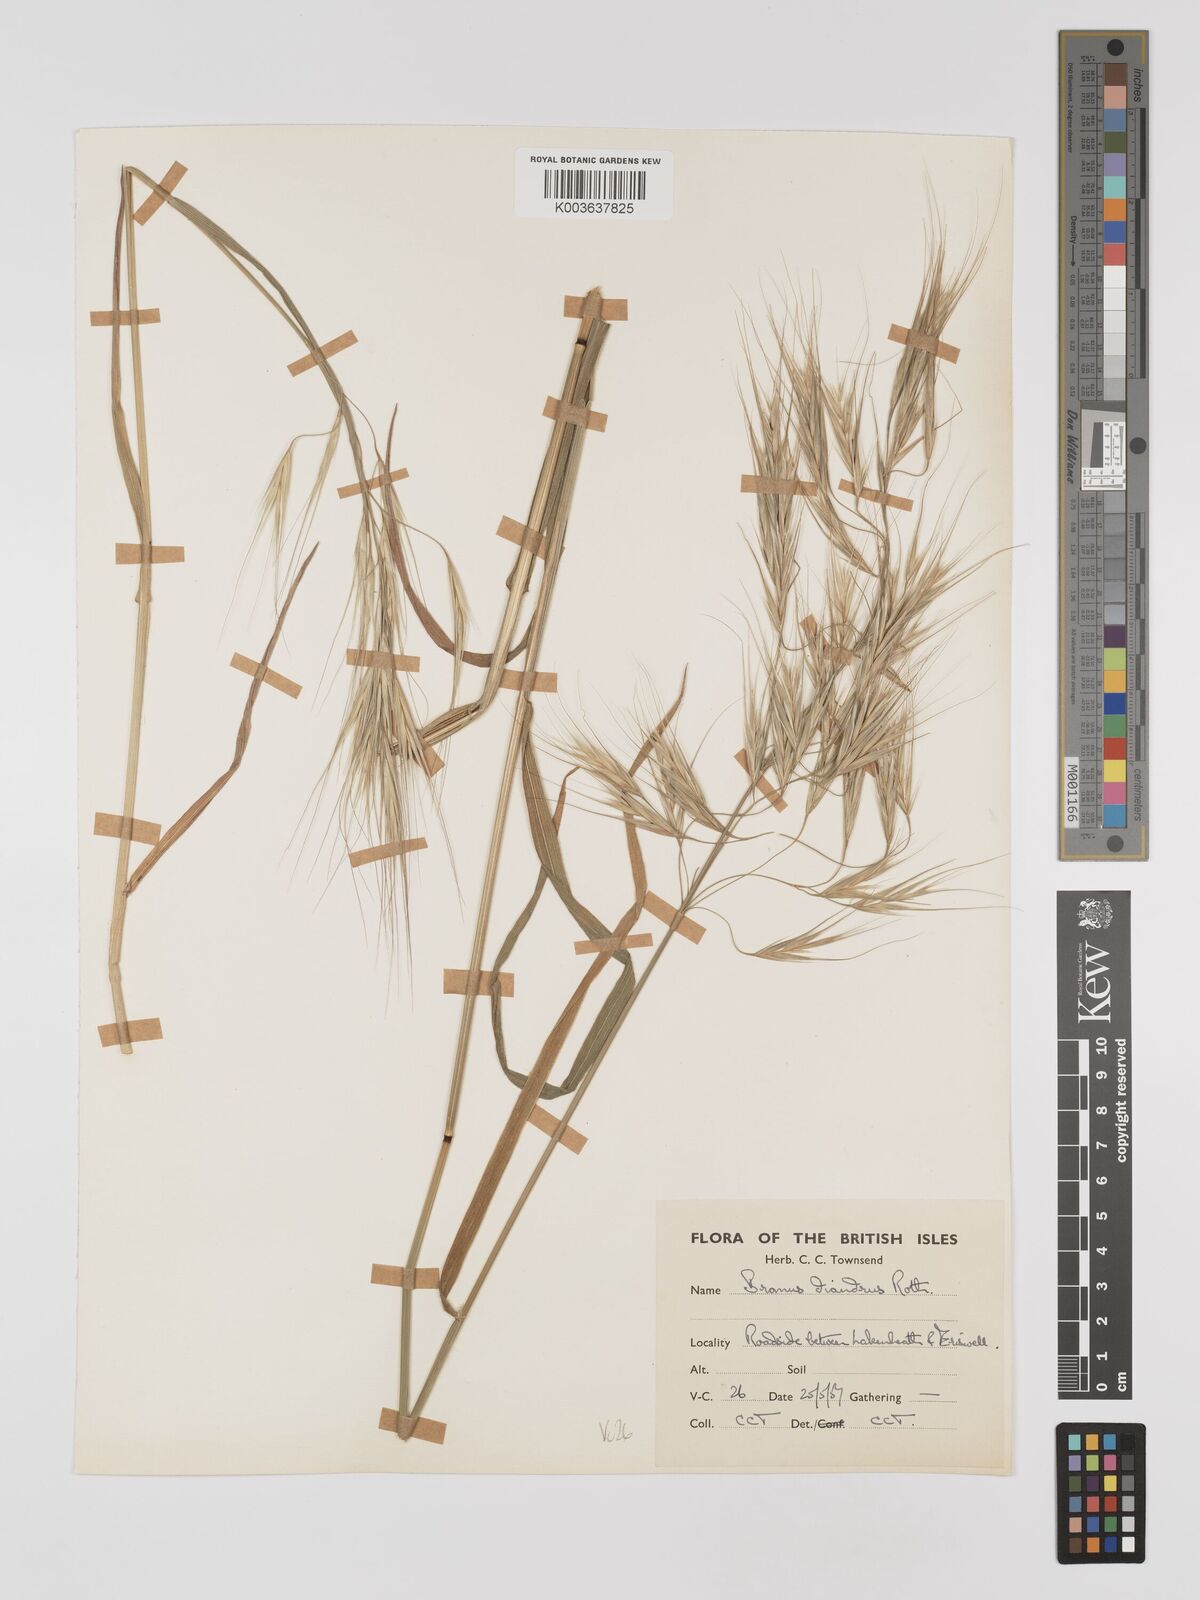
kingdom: Plantae
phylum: Tracheophyta
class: Liliopsida
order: Poales
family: Poaceae
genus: Bromus
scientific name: Bromus
